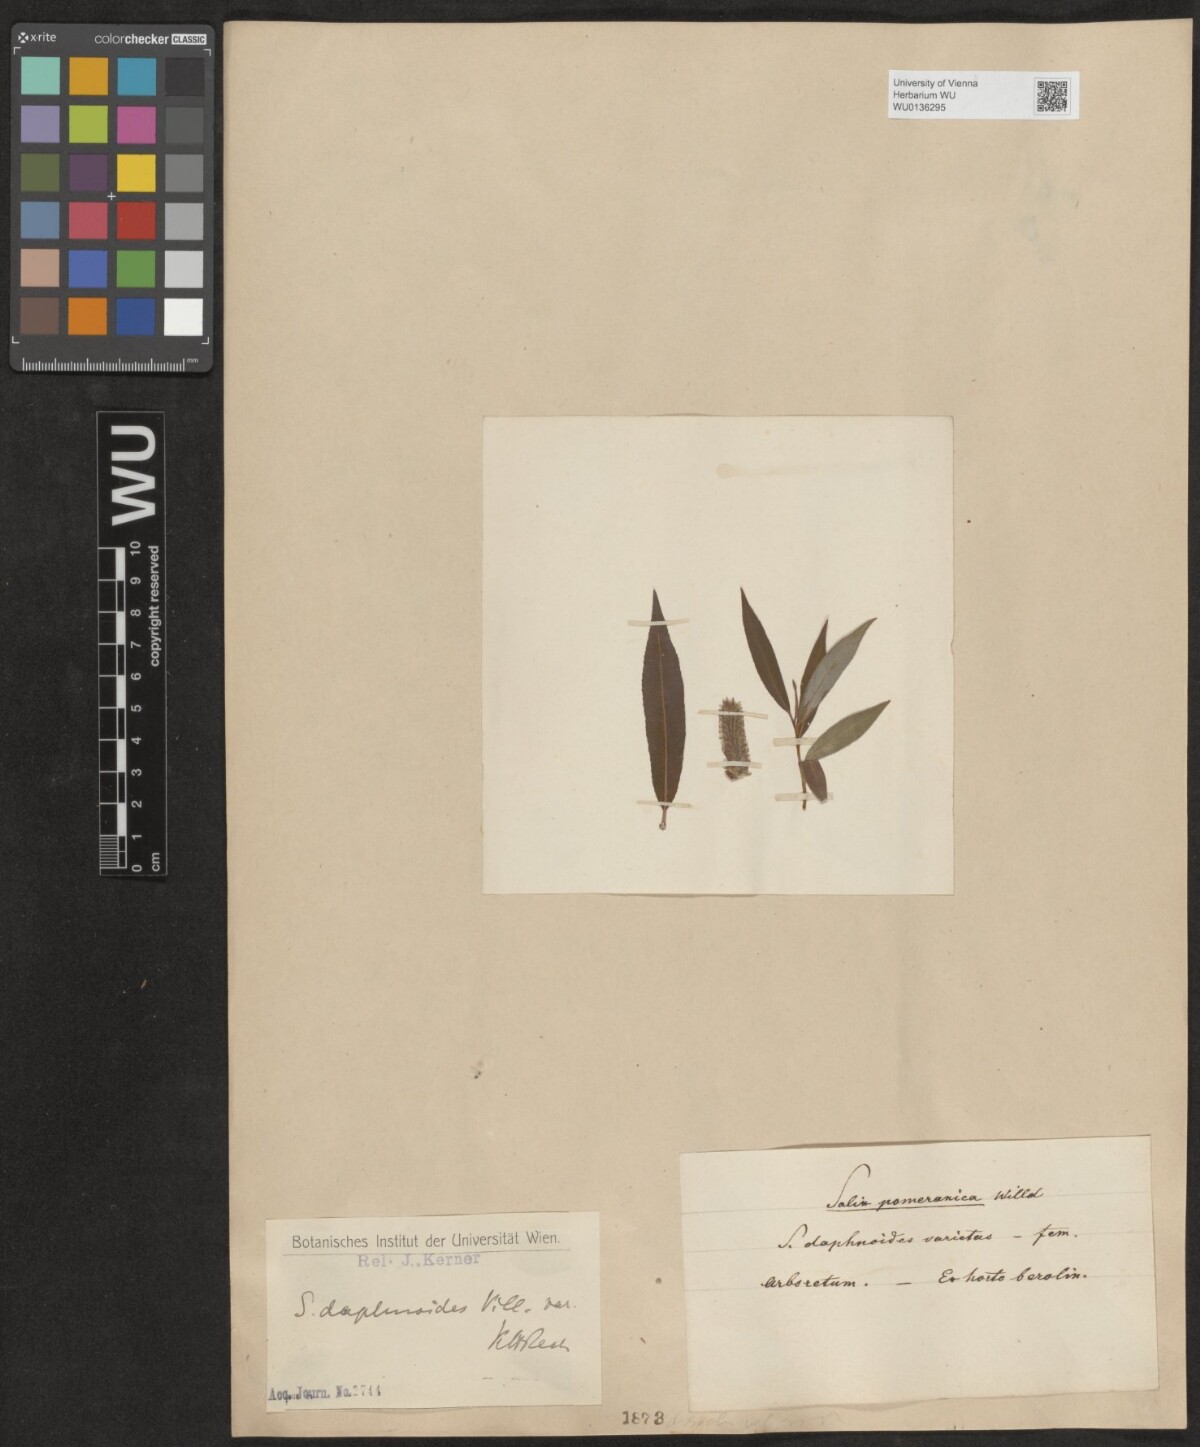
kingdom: Plantae
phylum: Tracheophyta
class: Magnoliopsida
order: Malpighiales
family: Salicaceae
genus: Salix
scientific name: Salix daphnoides
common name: European violet-willow
